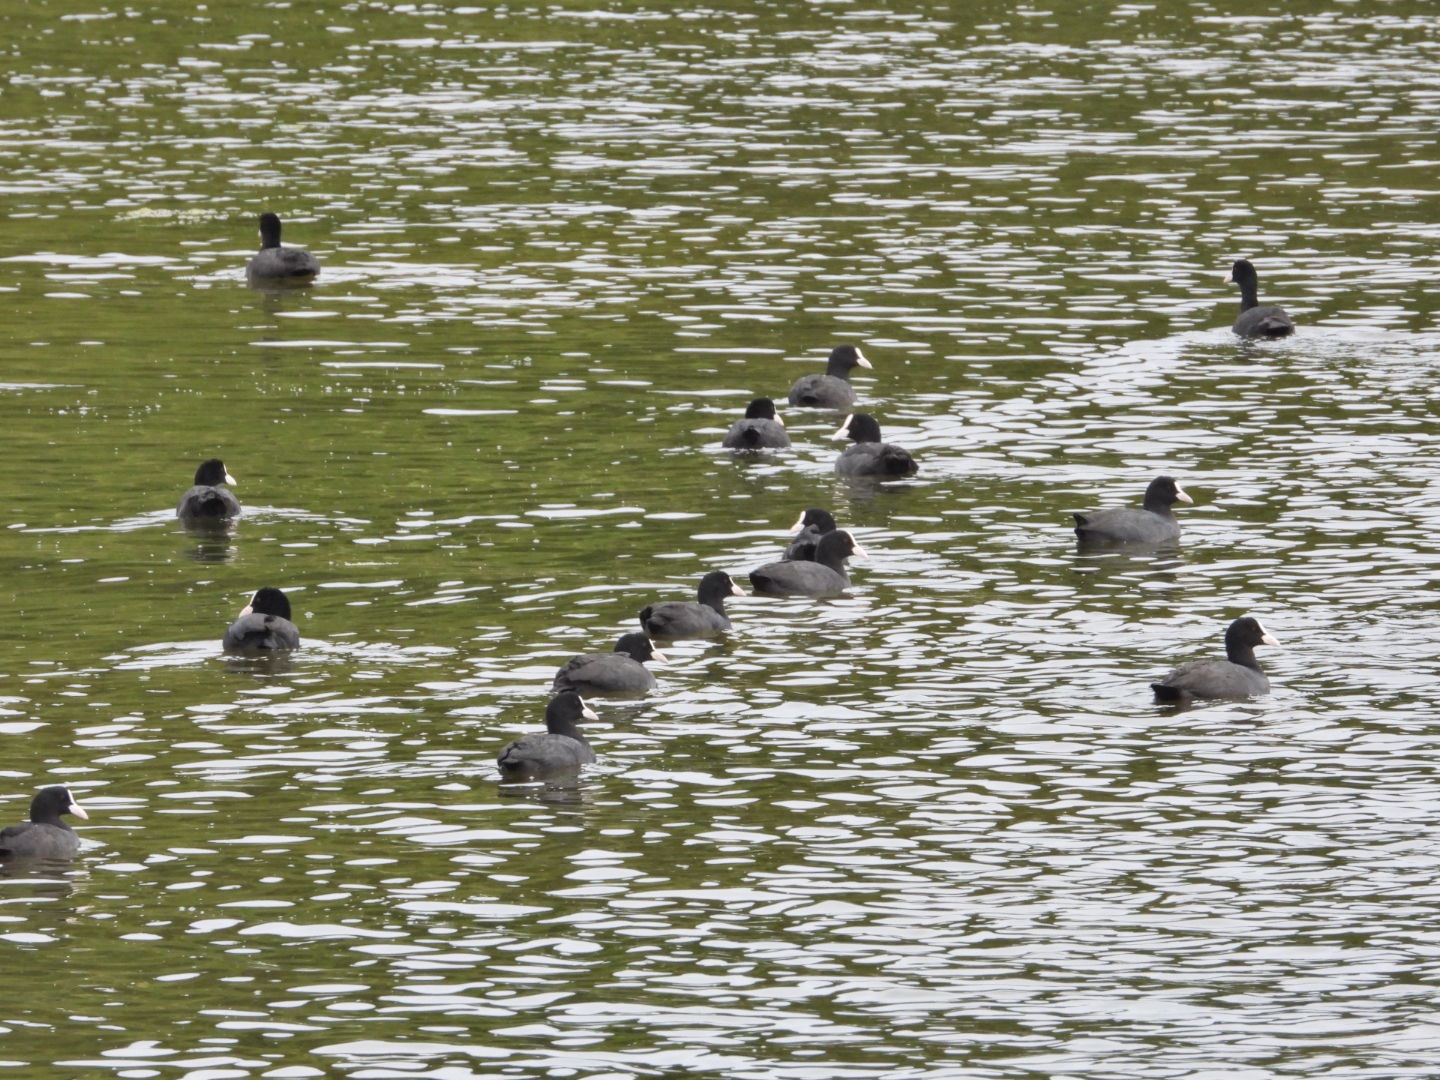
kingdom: Animalia
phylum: Chordata
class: Aves
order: Gruiformes
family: Rallidae
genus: Fulica
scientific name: Fulica atra
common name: Blishøne
